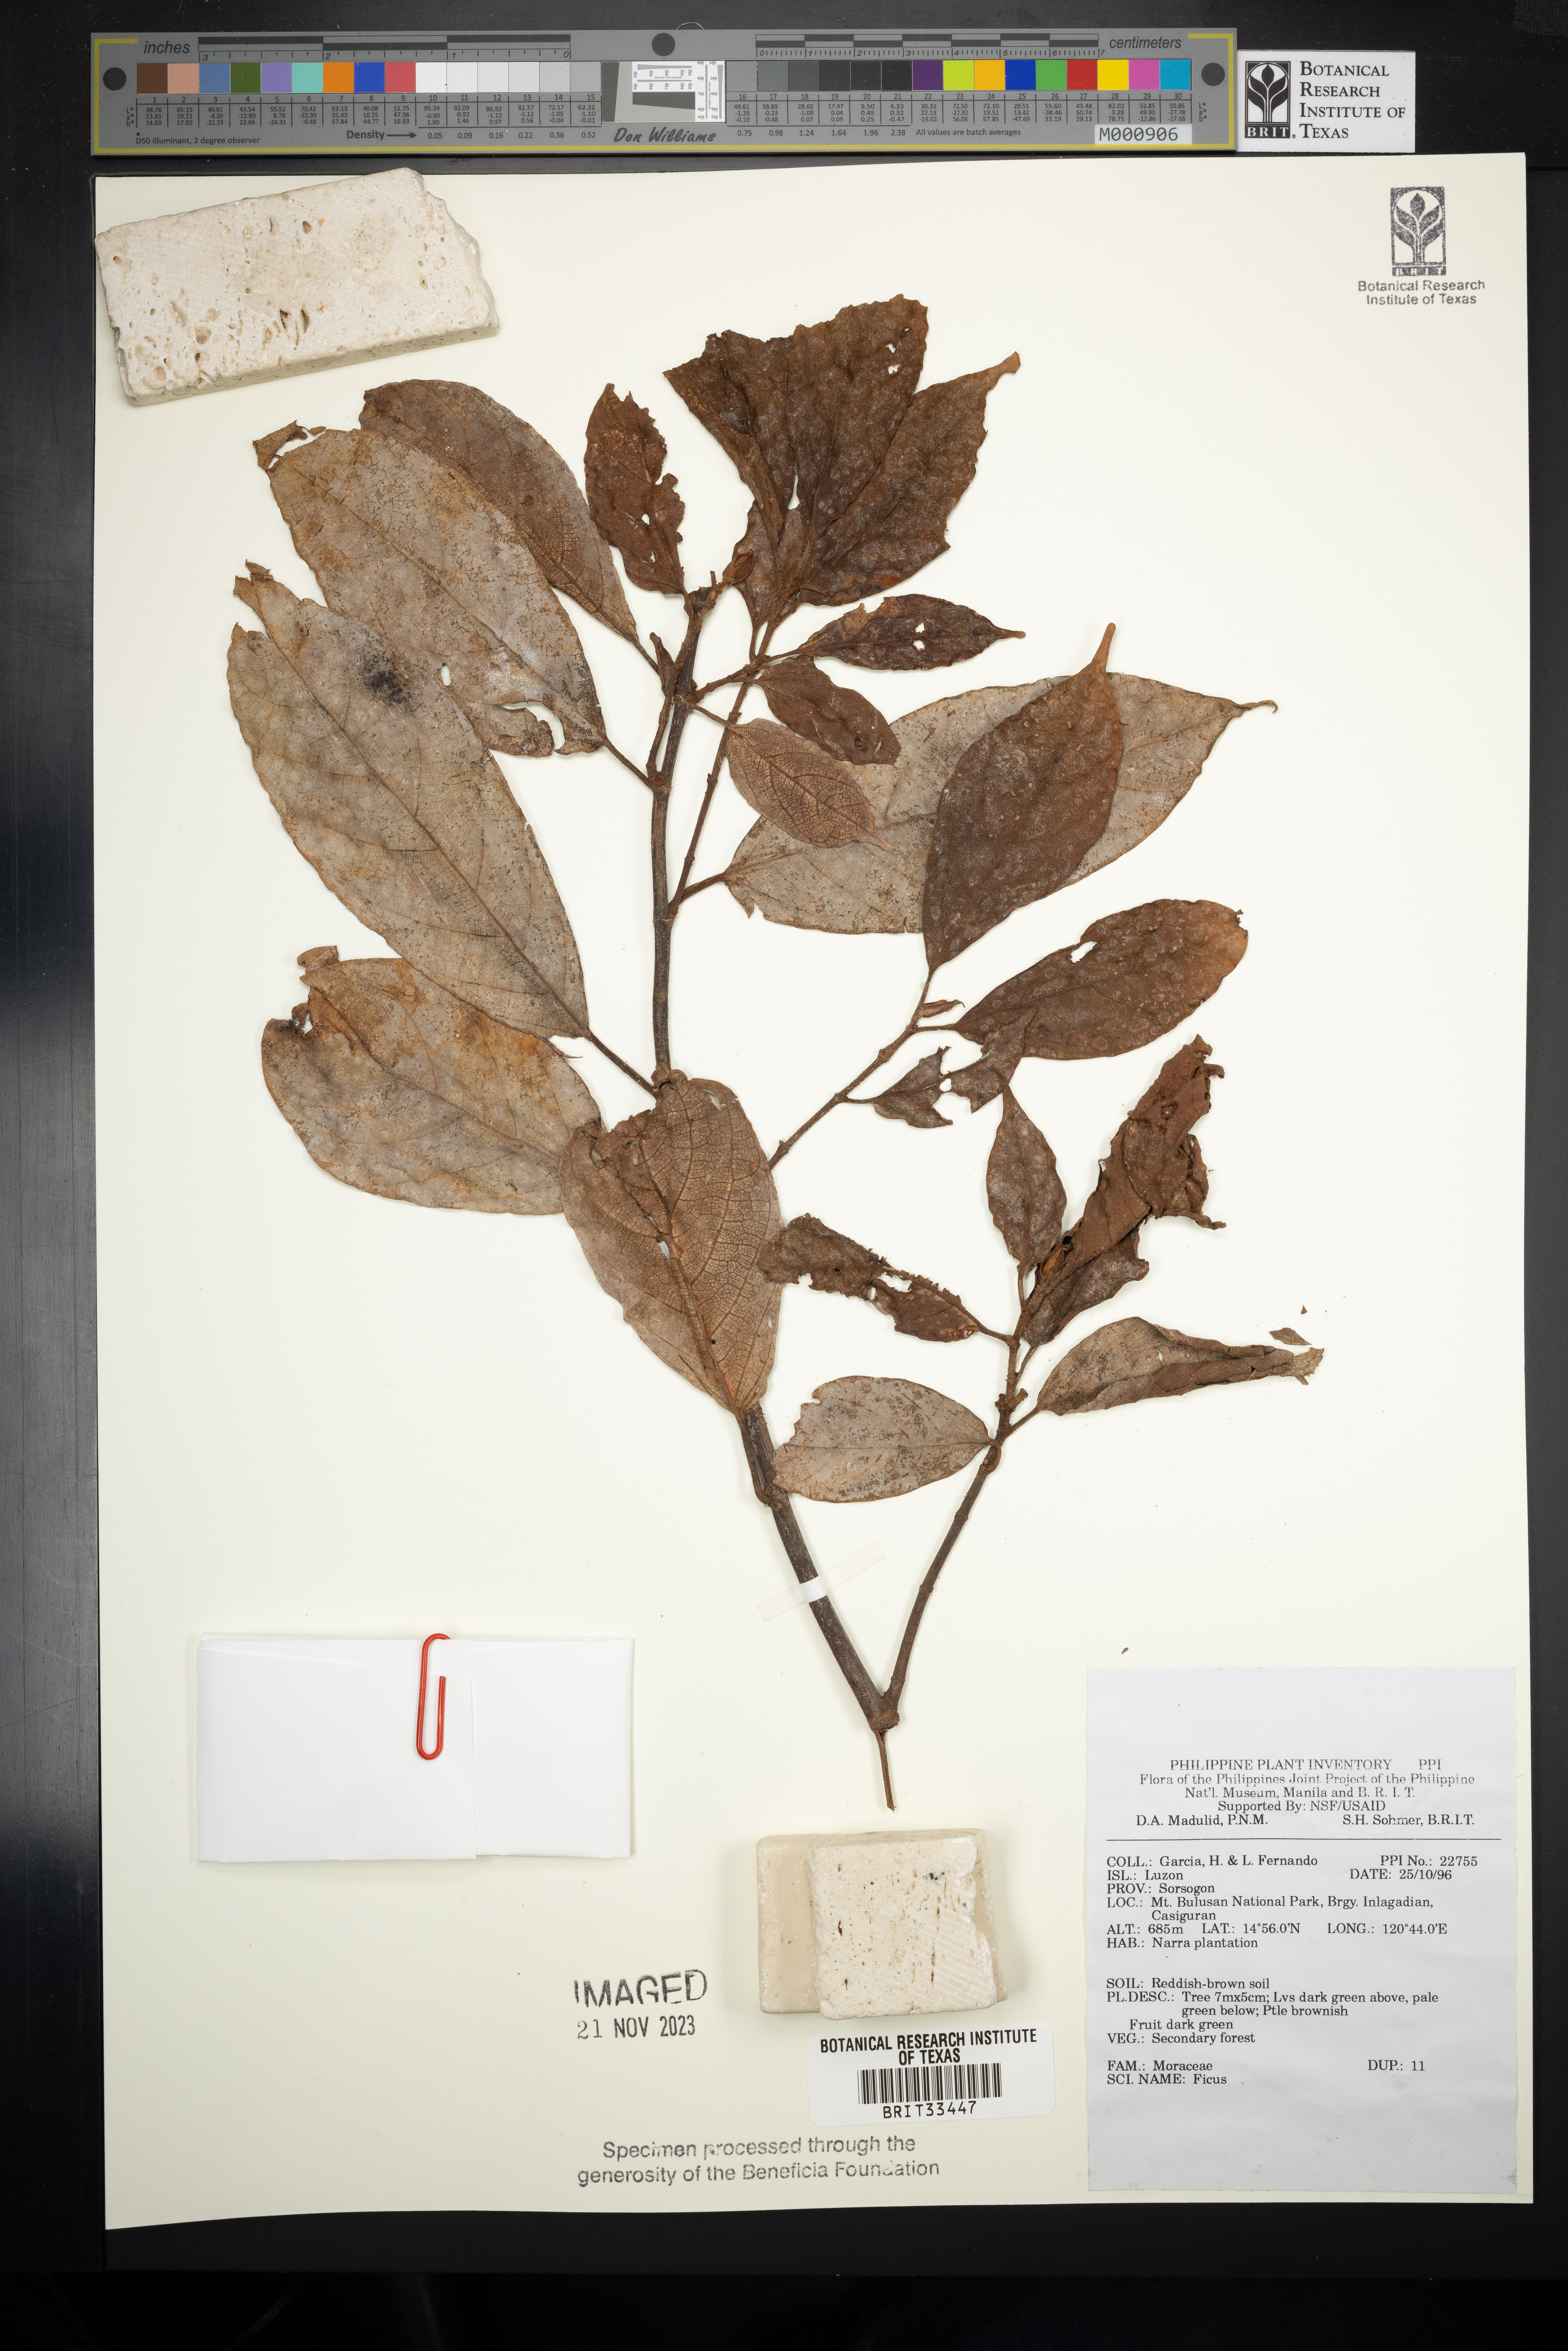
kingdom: Plantae
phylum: Tracheophyta
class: Magnoliopsida
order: Rosales
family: Moraceae
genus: Ficus
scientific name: Ficus
